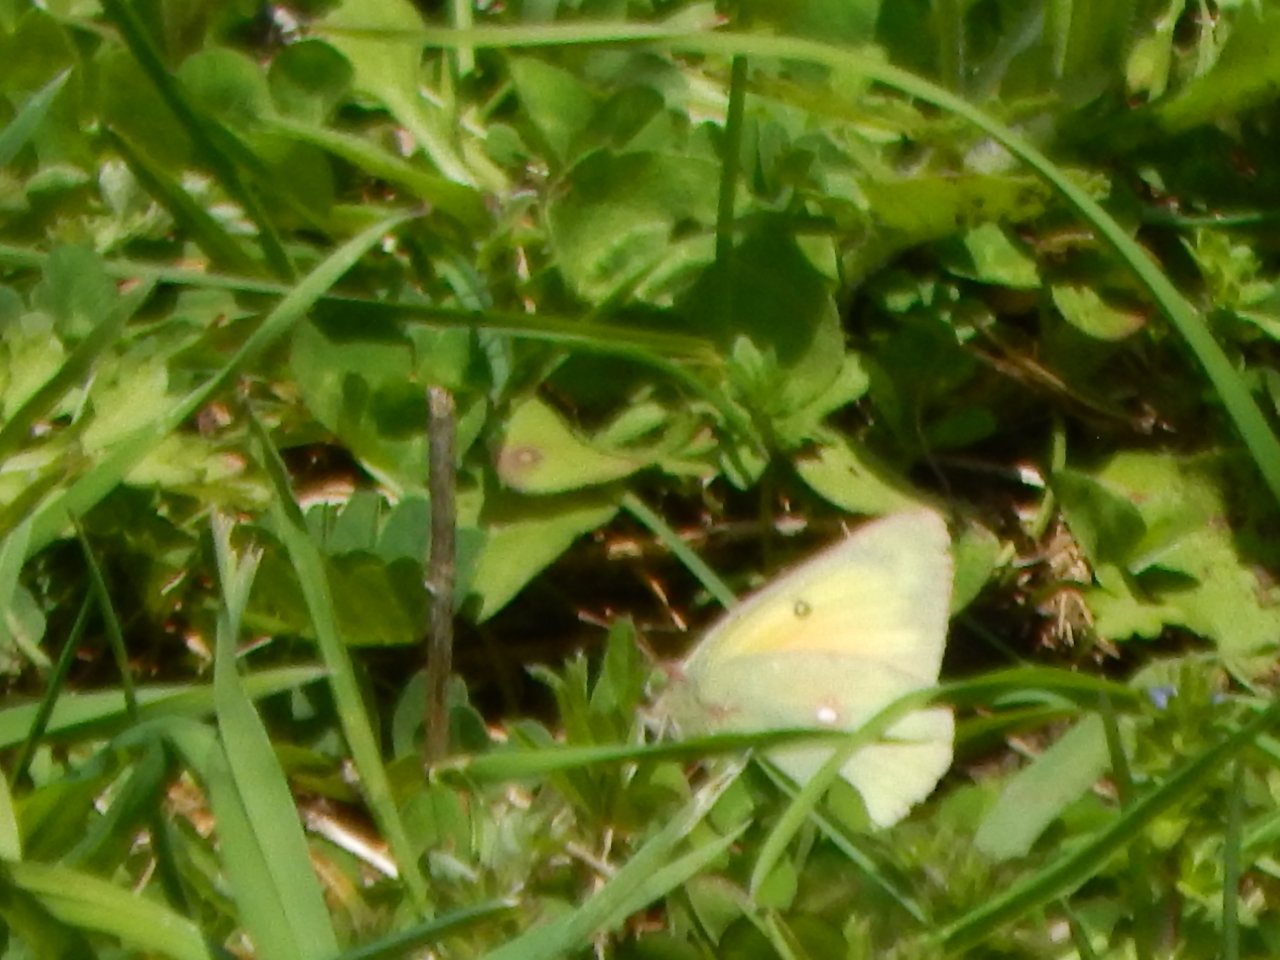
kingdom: Animalia
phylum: Arthropoda
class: Insecta
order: Lepidoptera
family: Pieridae
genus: Colias
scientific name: Colias philodice
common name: Clouded Sulphur
